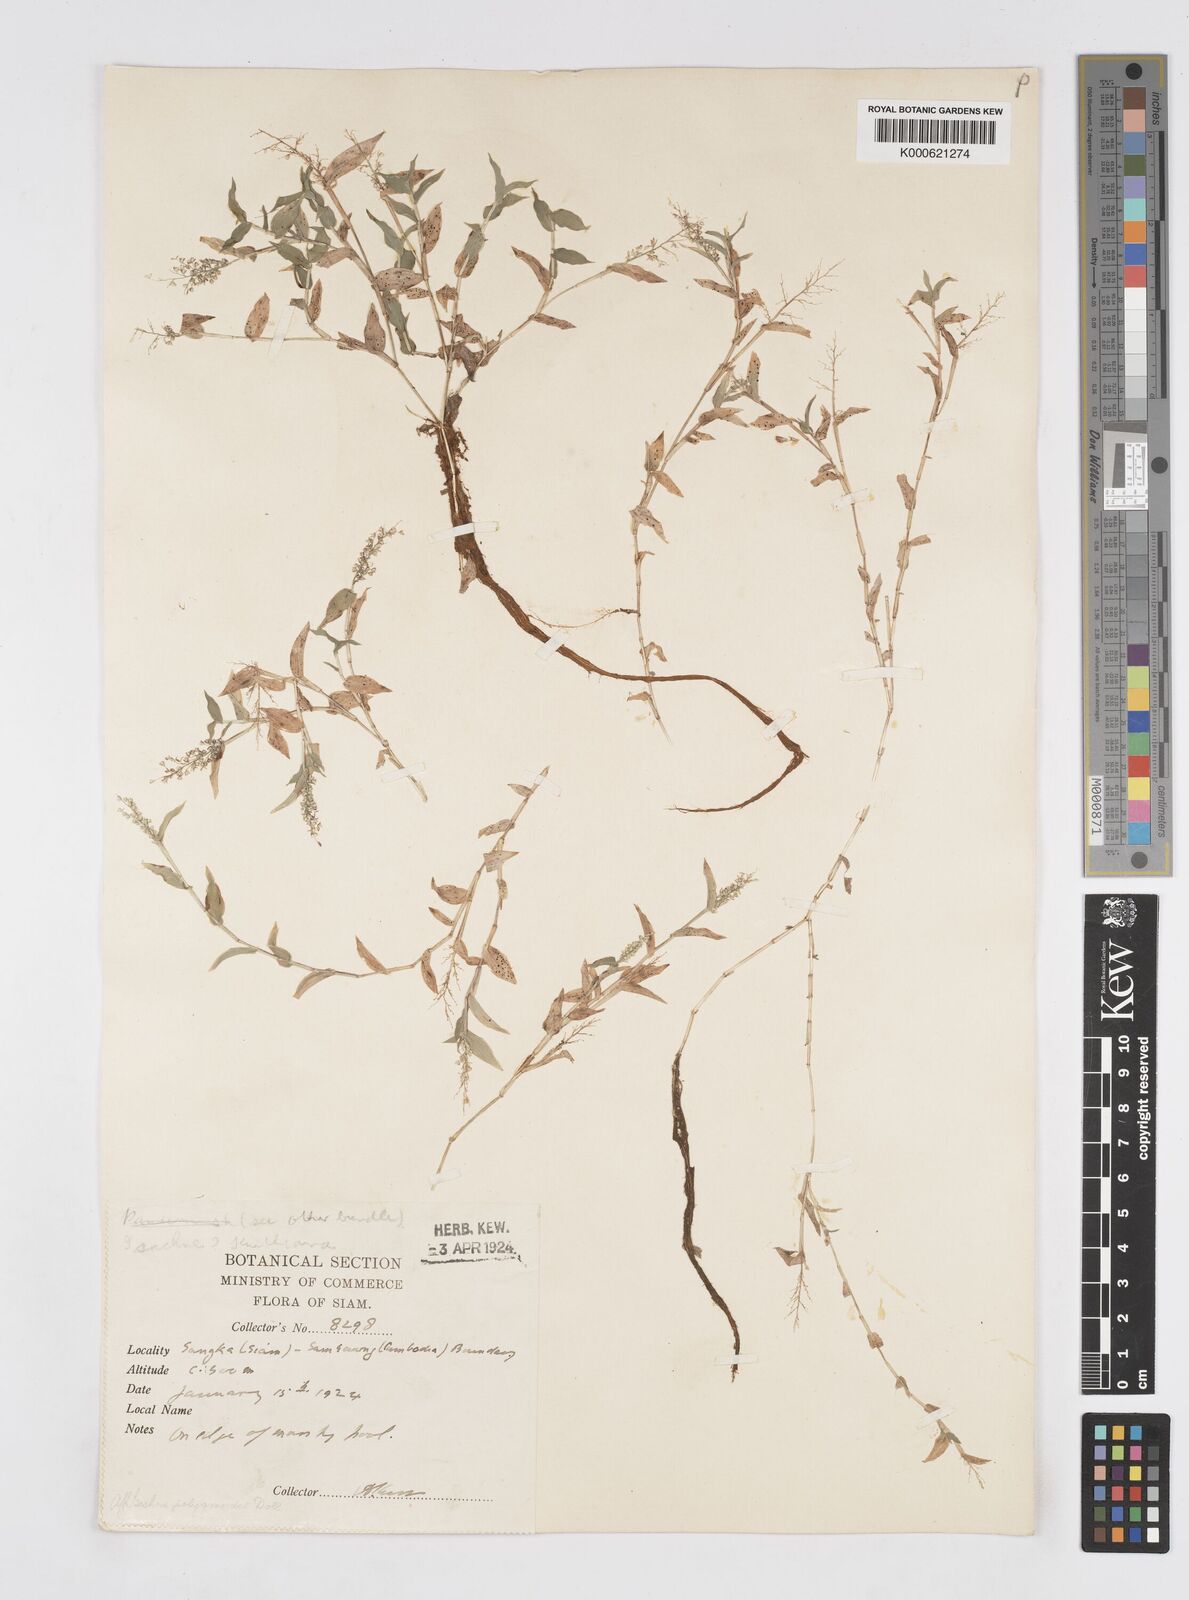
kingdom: Plantae
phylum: Tracheophyta
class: Liliopsida
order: Poales
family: Poaceae
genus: Isachne
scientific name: Isachne
